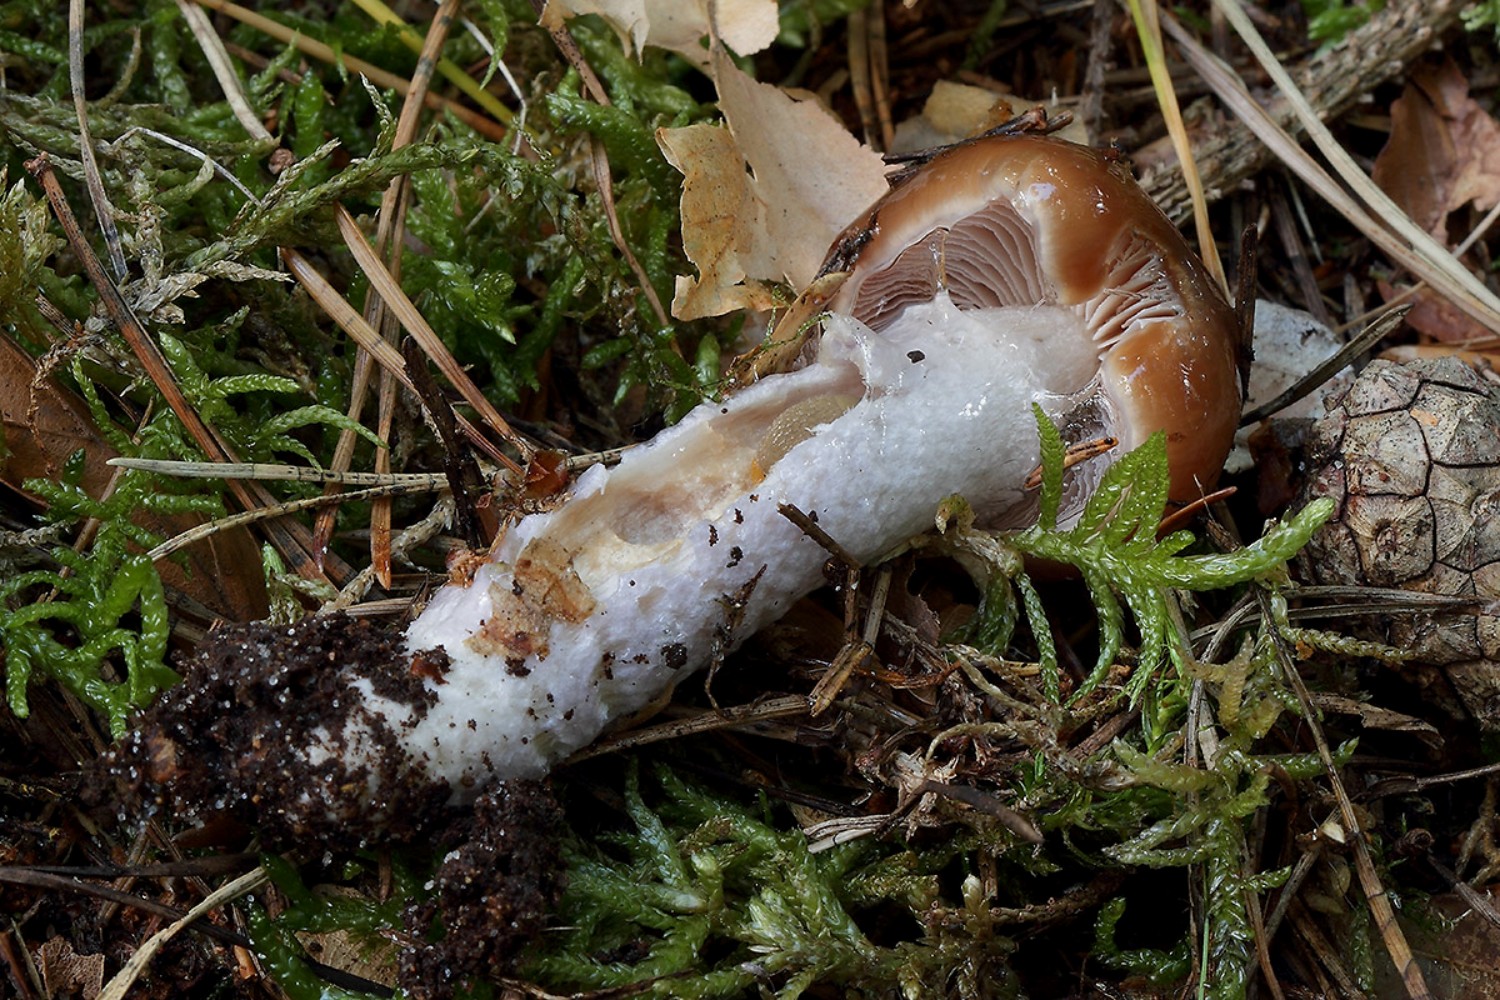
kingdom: Fungi
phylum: Basidiomycota
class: Agaricomycetes
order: Agaricales
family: Cortinariaceae
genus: Cortinarius
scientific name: Cortinarius stillatitius
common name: honningduftende slørhat
